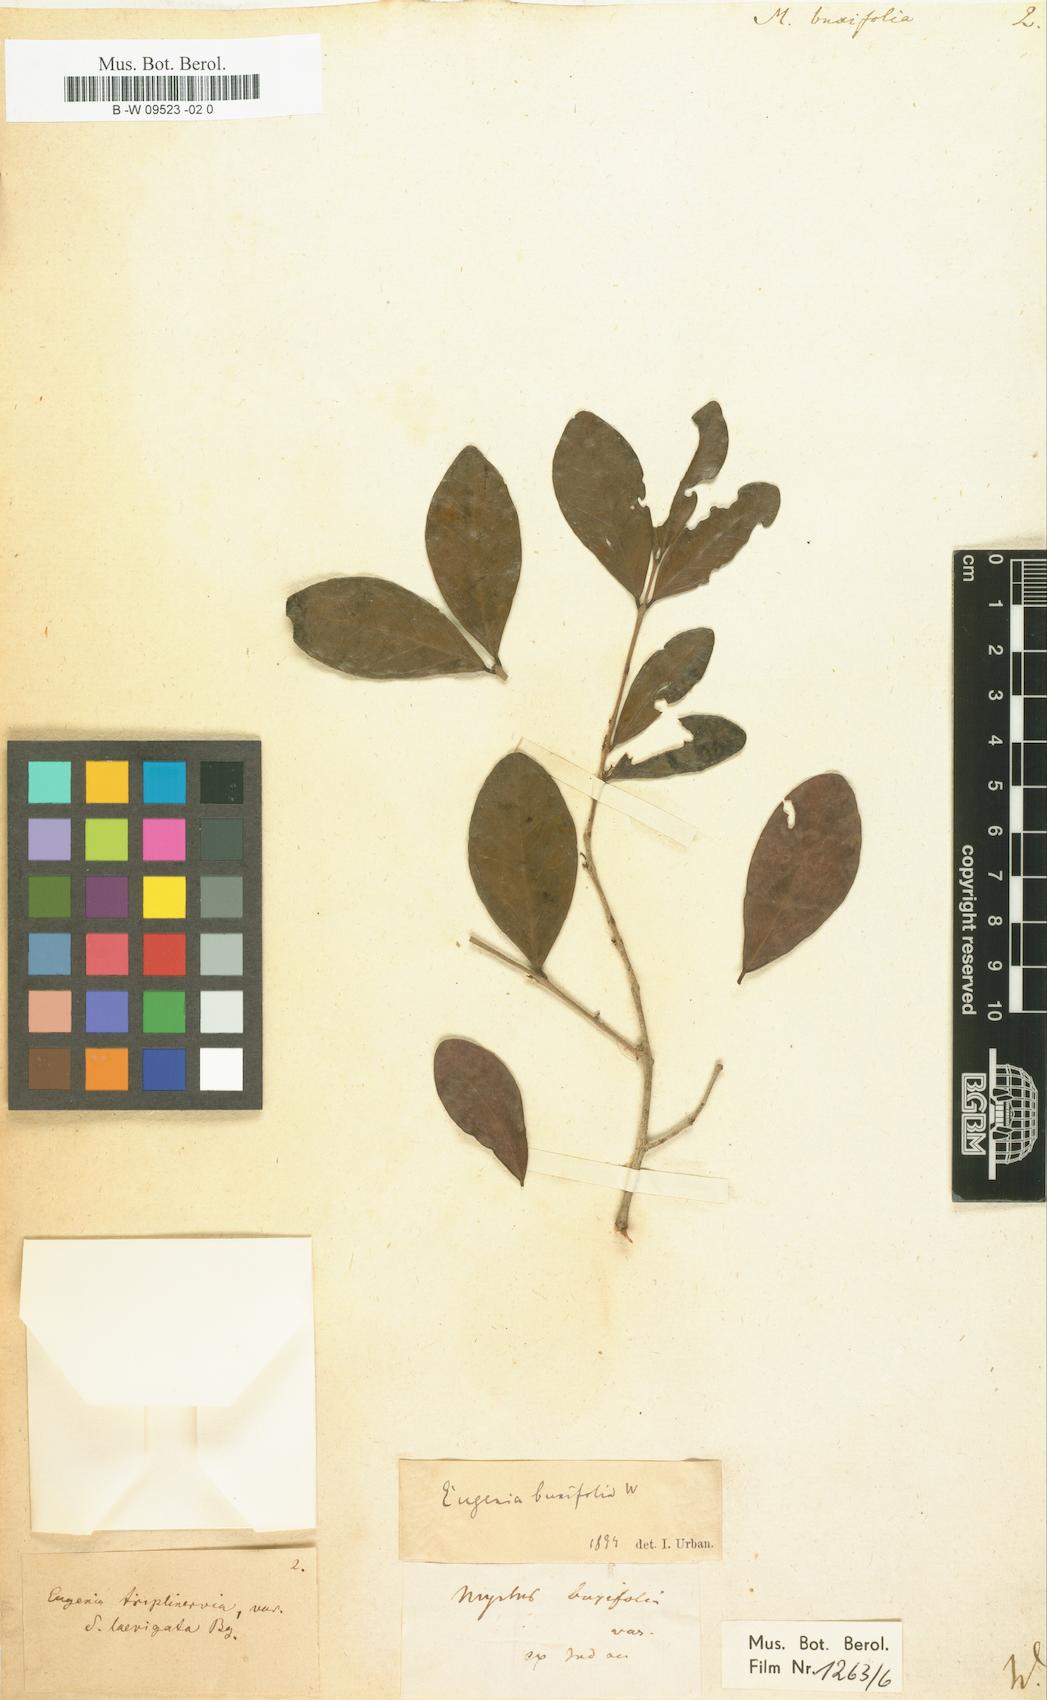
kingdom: Plantae
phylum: Tracheophyta
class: Magnoliopsida
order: Myrtales
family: Myrtaceae
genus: Eugenia
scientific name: Eugenia buxifolia
